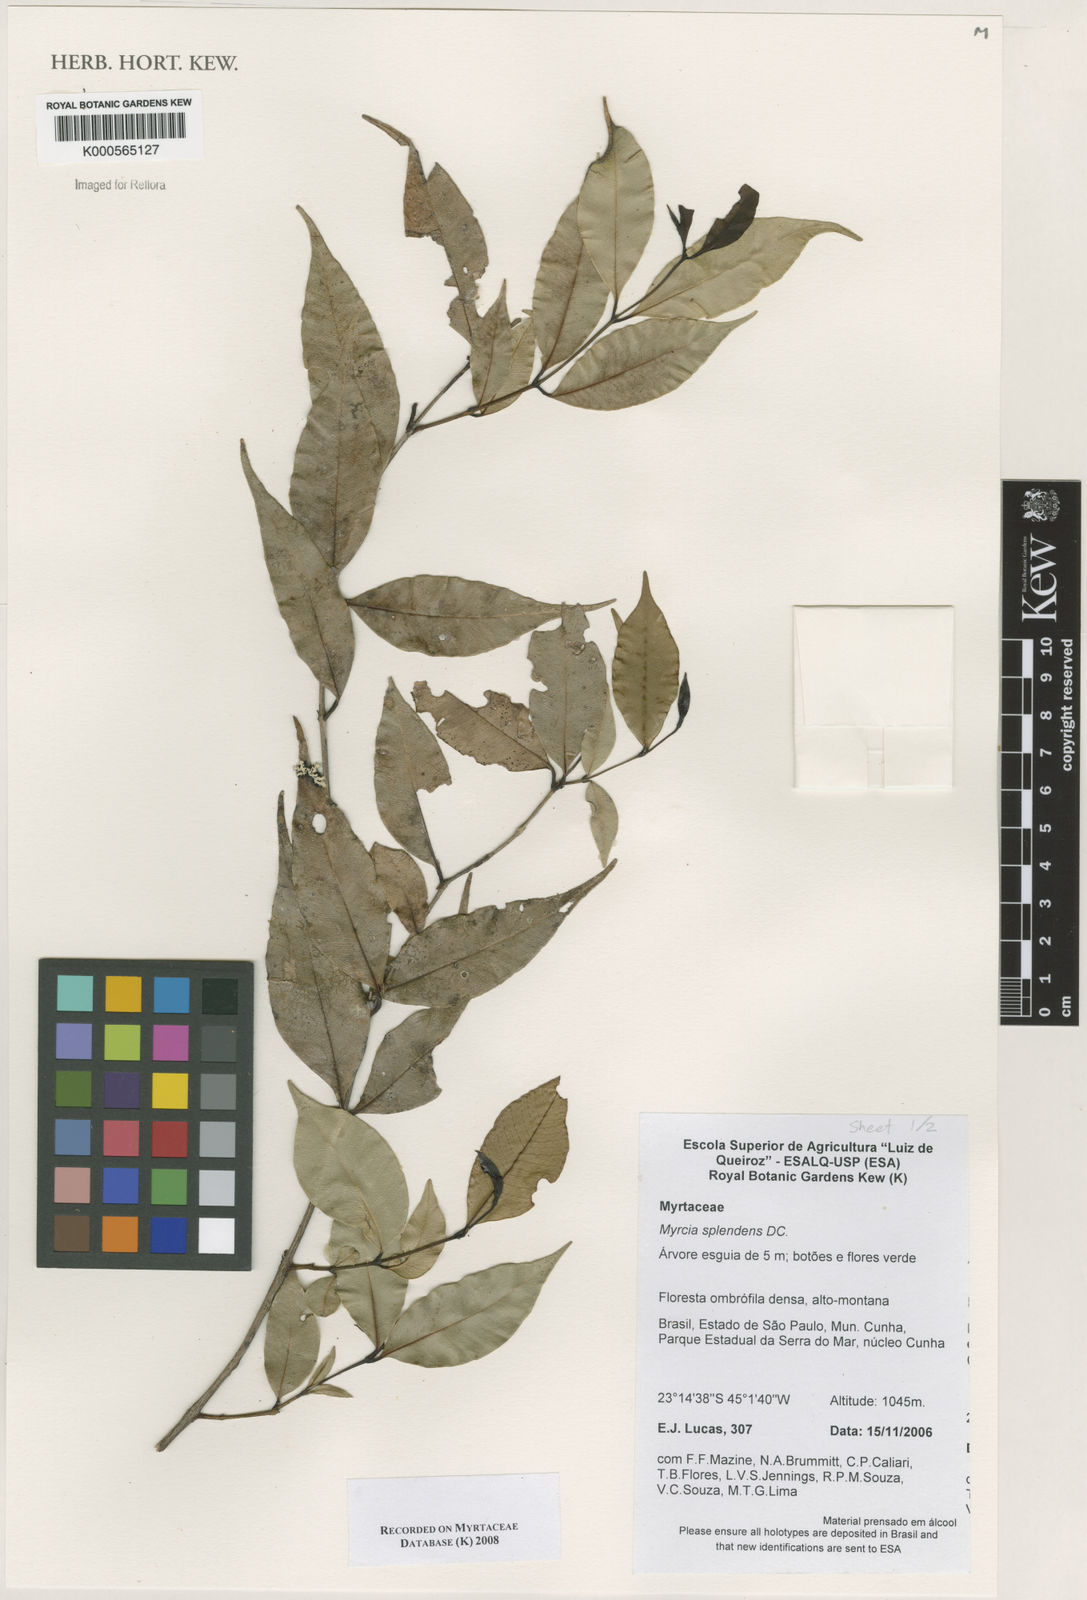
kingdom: Plantae
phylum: Tracheophyta
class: Magnoliopsida
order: Myrtales
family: Myrtaceae
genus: Myrcia
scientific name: Myrcia splendens
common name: Surinam cherry
